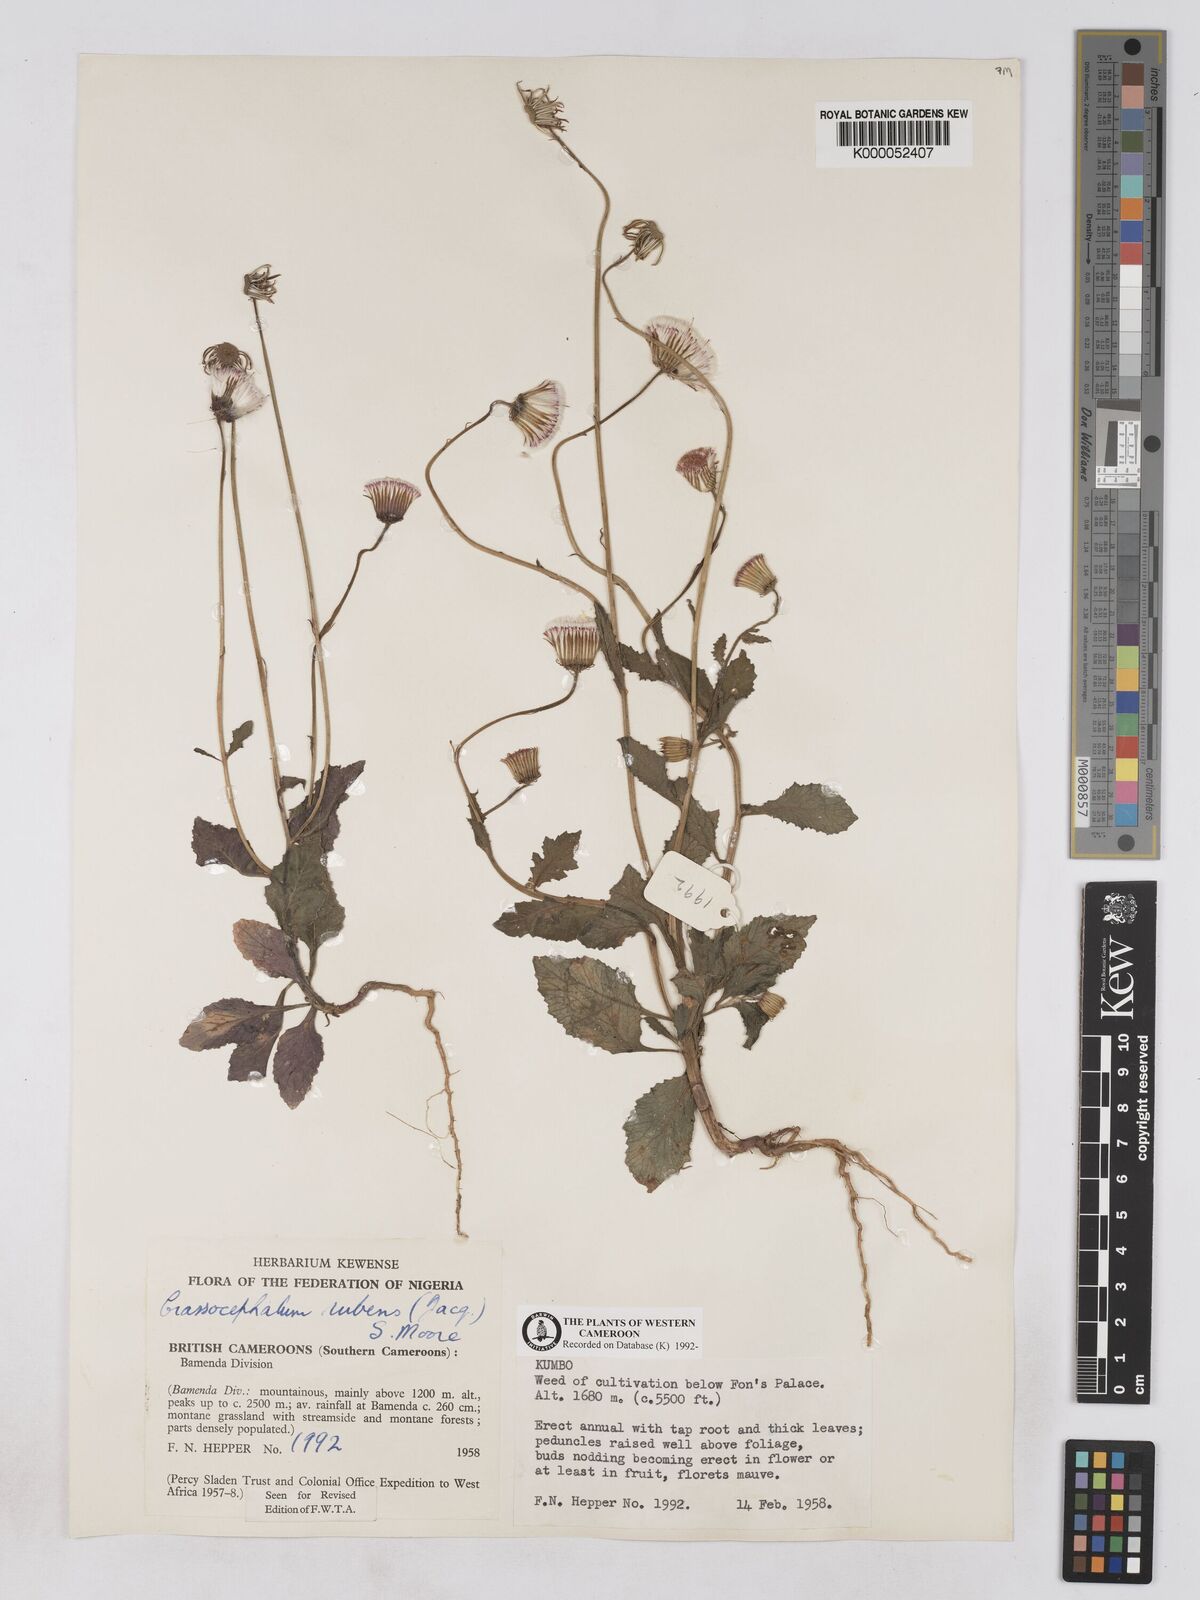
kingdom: Plantae
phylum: Tracheophyta
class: Magnoliopsida
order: Asterales
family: Asteraceae
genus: Crassocephalum
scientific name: Crassocephalum rubens
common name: Yoruban bologi
